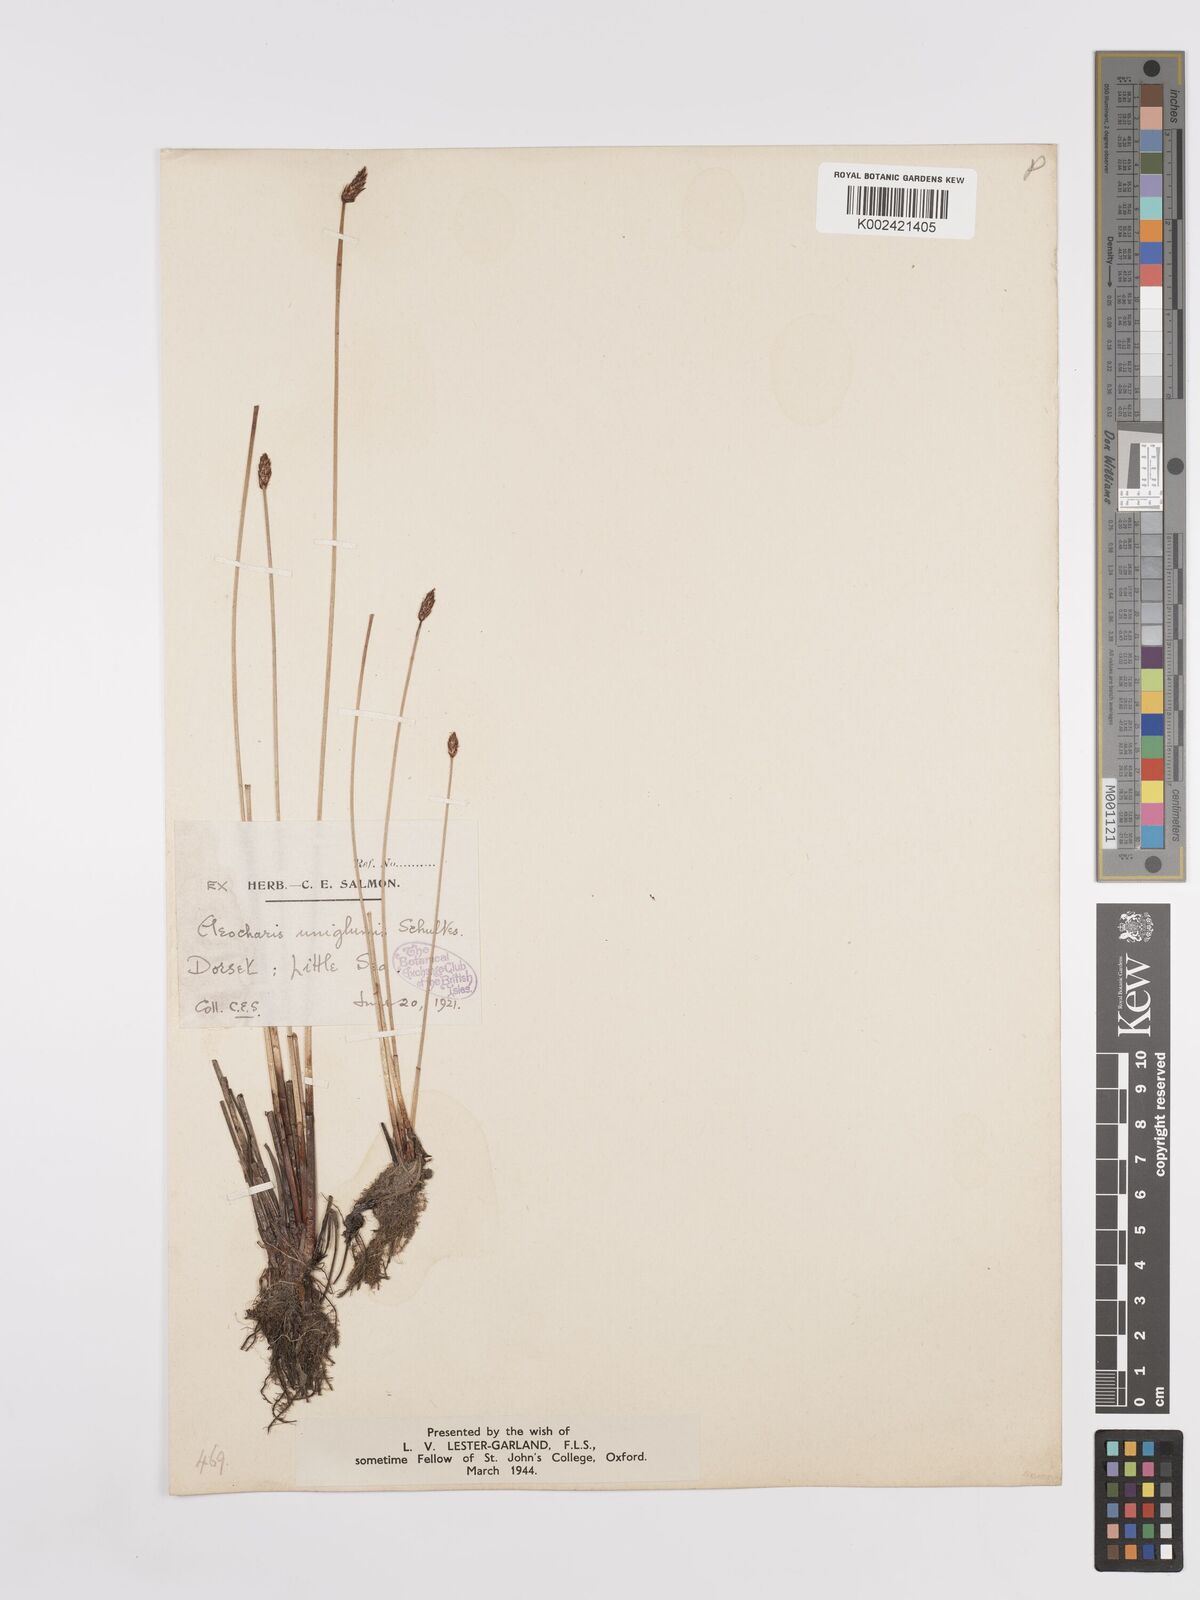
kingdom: Plantae
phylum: Tracheophyta
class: Liliopsida
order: Poales
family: Cyperaceae
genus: Eleocharis
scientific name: Eleocharis uniglumis
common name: Slender spike-rush
